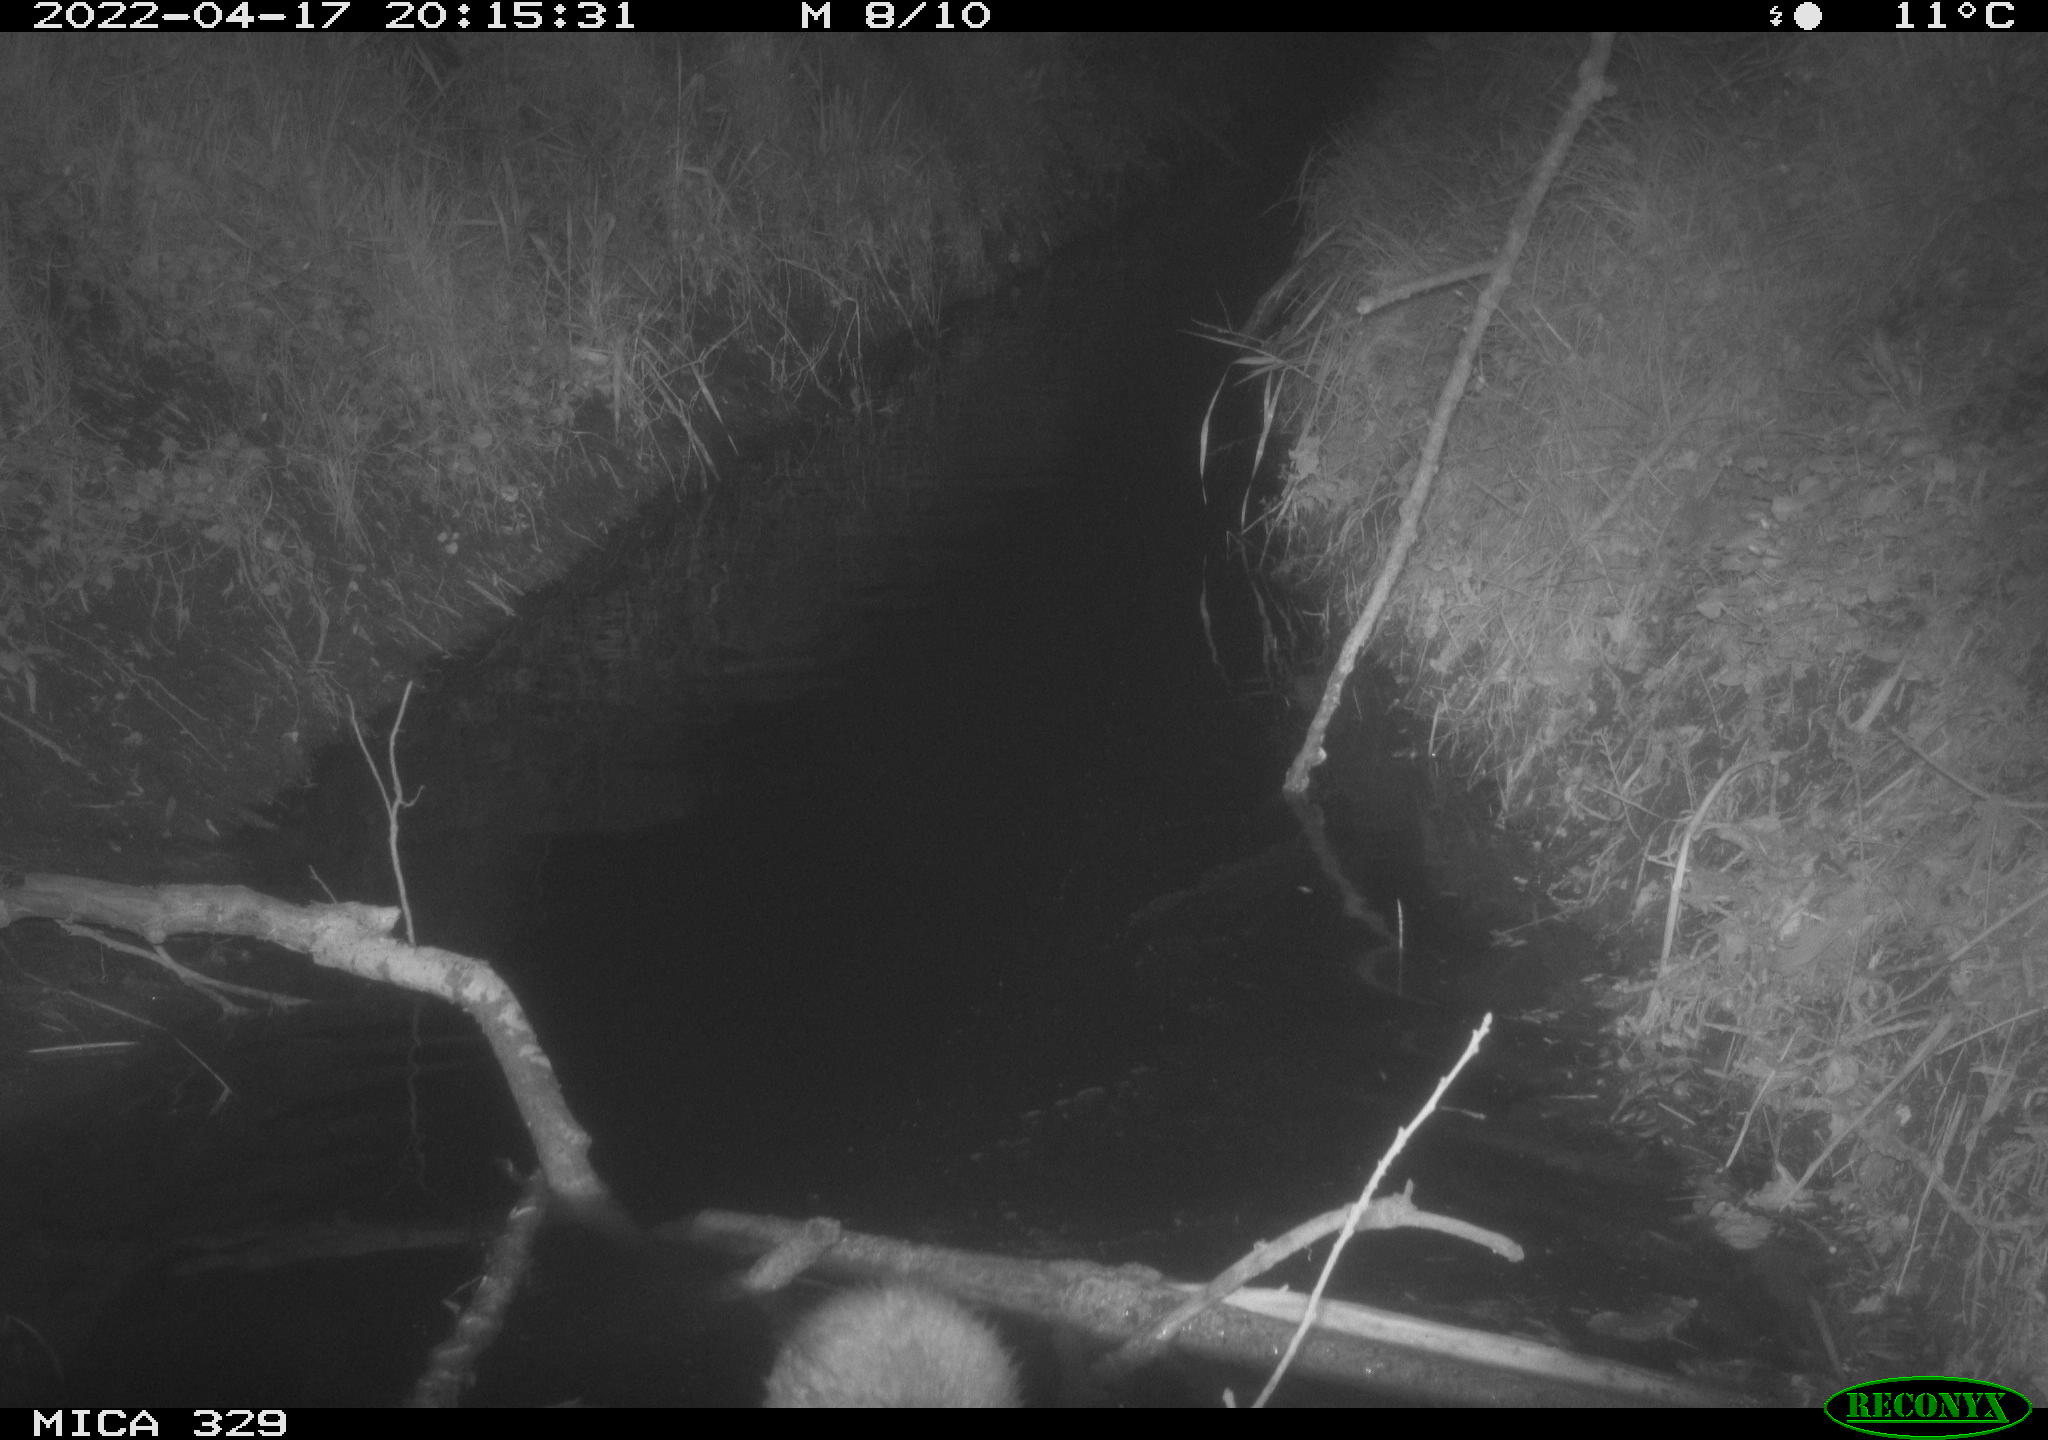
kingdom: Animalia
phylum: Chordata
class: Mammalia
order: Rodentia
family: Cricetidae
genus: Ondatra
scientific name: Ondatra zibethicus
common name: Muskrat
